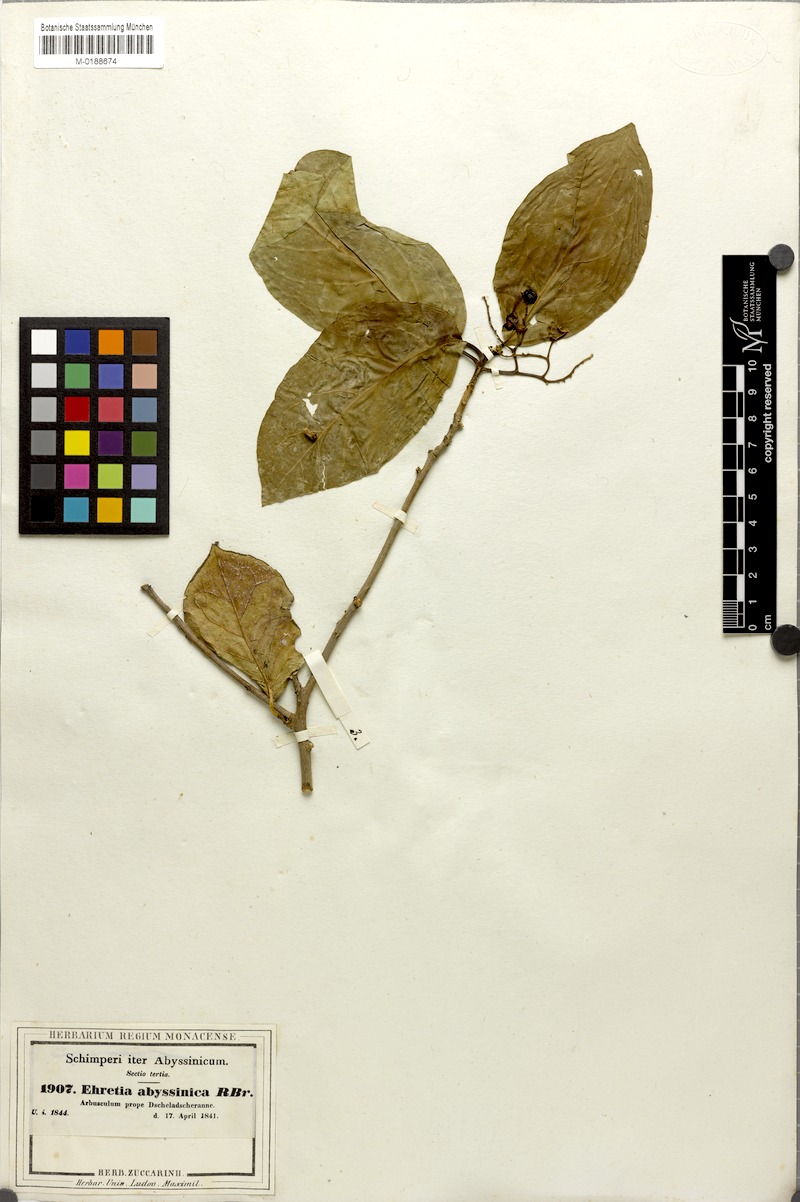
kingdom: Plantae
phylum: Tracheophyta
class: Magnoliopsida
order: Boraginales
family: Ehretiaceae
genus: Ehretia
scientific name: Ehretia cymosa
